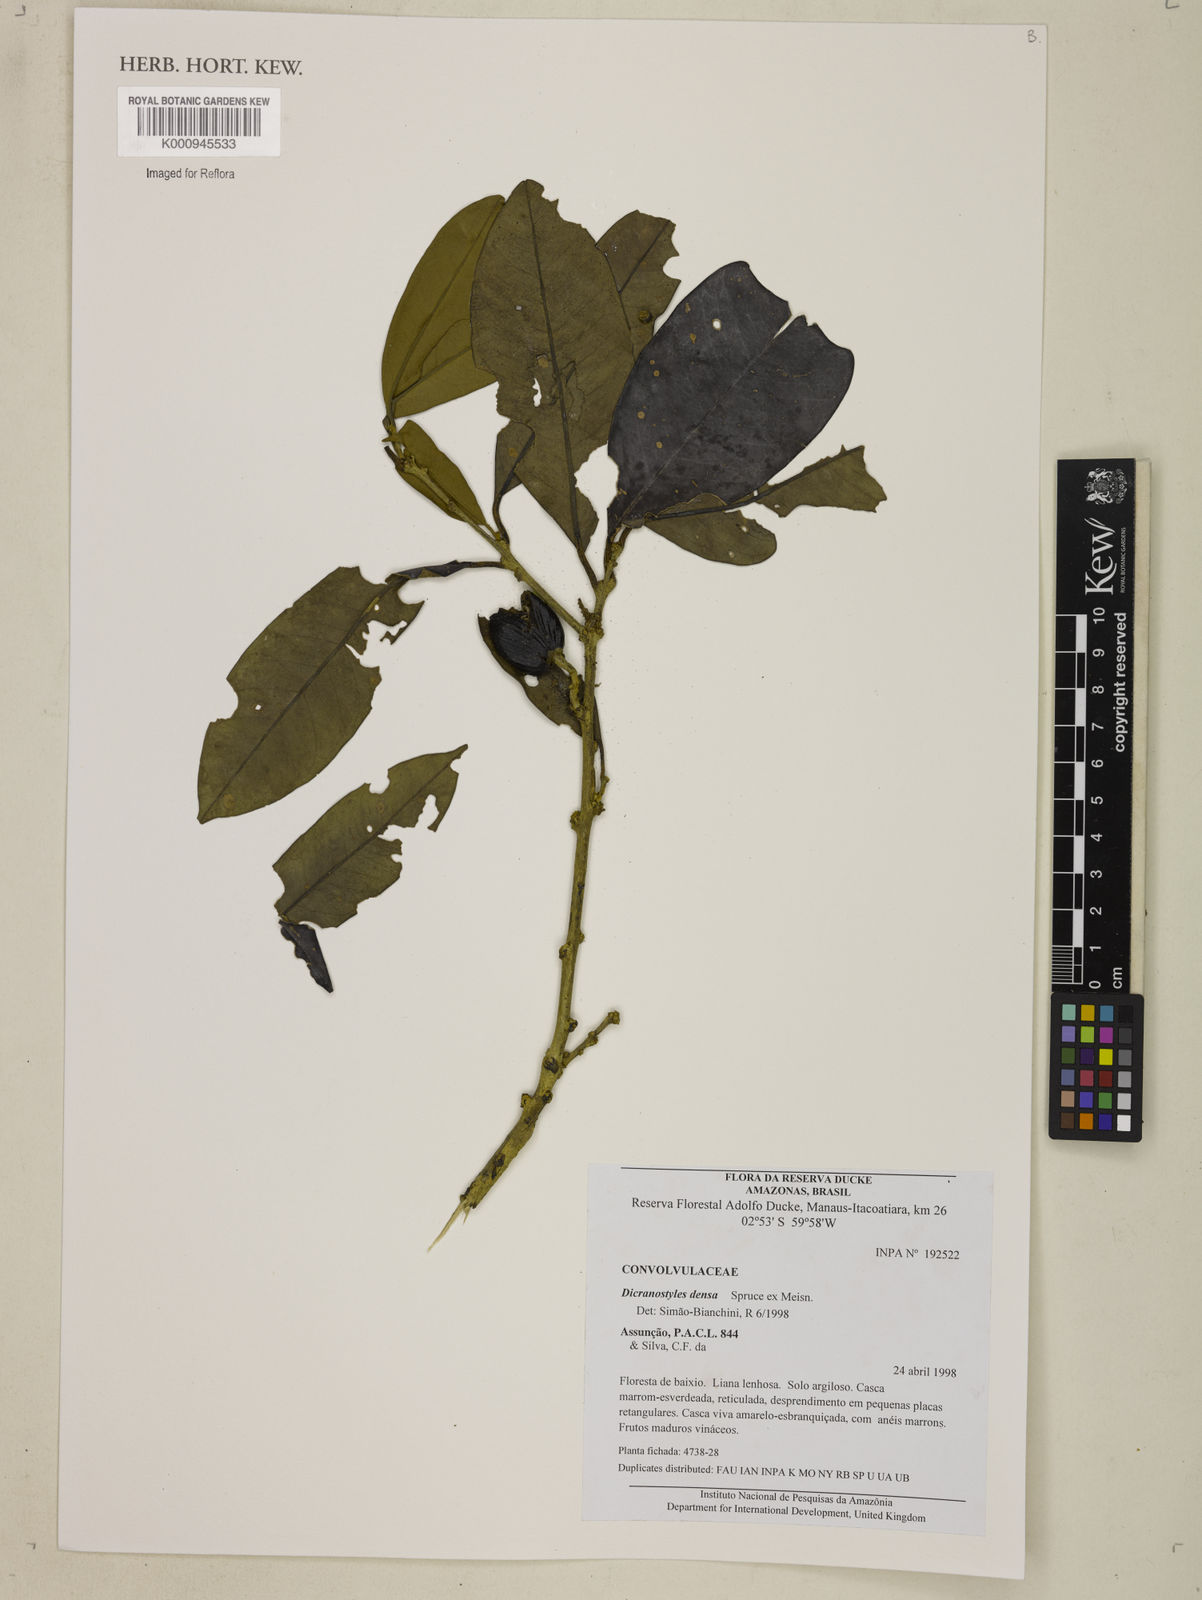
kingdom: Plantae
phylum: Tracheophyta
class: Magnoliopsida
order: Solanales
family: Convolvulaceae
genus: Dicranostyles
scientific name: Dicranostyles densa
